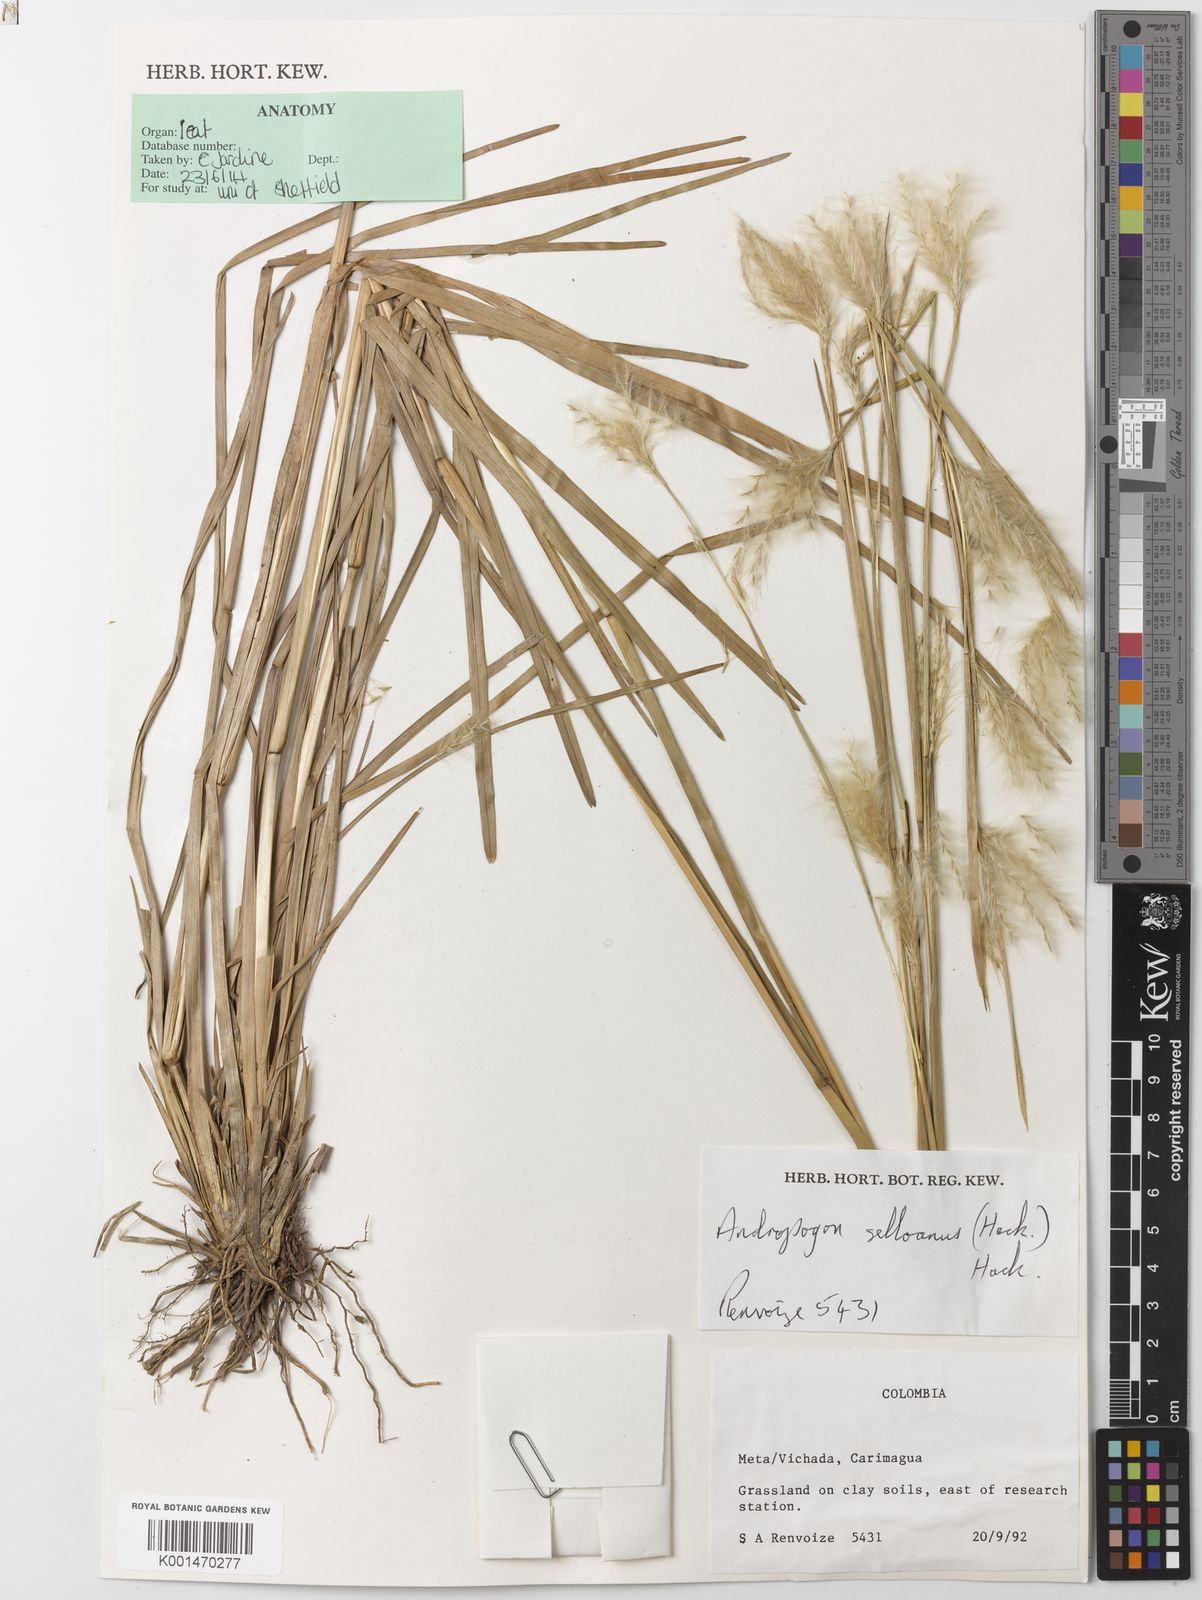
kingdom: Plantae
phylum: Tracheophyta
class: Liliopsida
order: Poales
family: Poaceae
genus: Andropogon
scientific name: Andropogon selloanus
